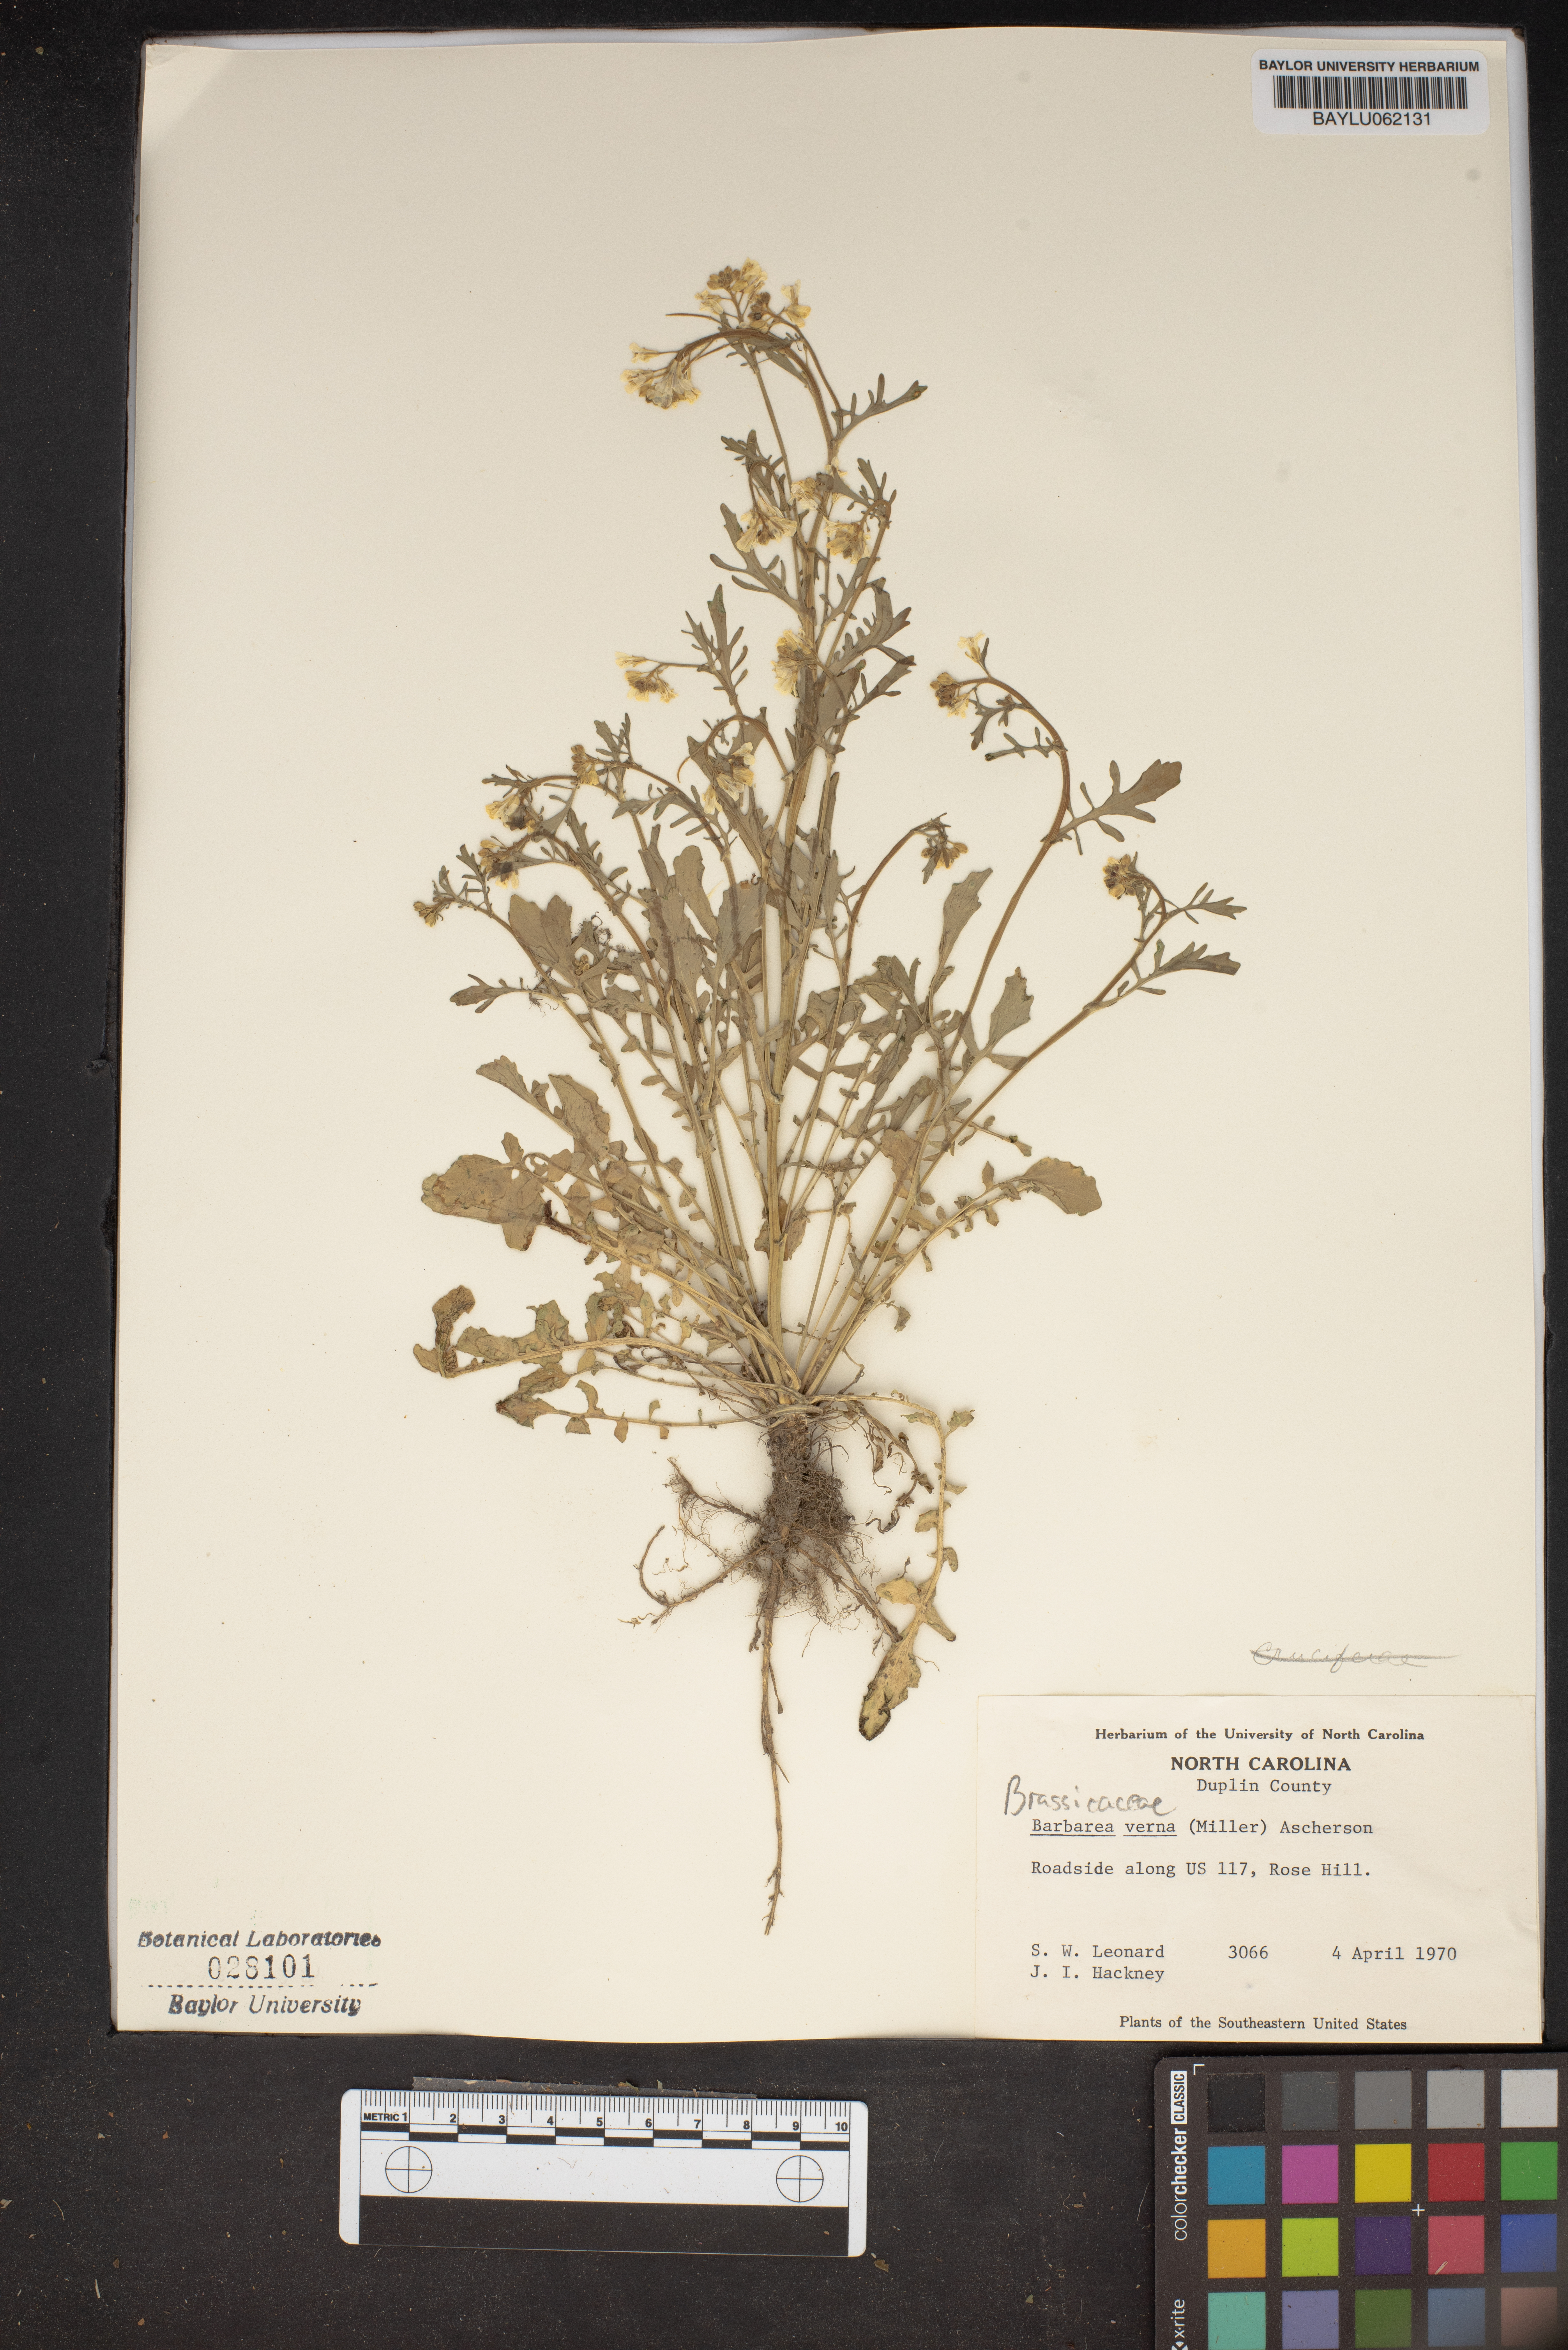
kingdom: Plantae
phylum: Tracheophyta
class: Magnoliopsida
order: Brassicales
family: Brassicaceae
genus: Barbarea
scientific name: Barbarea verna
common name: American cress
